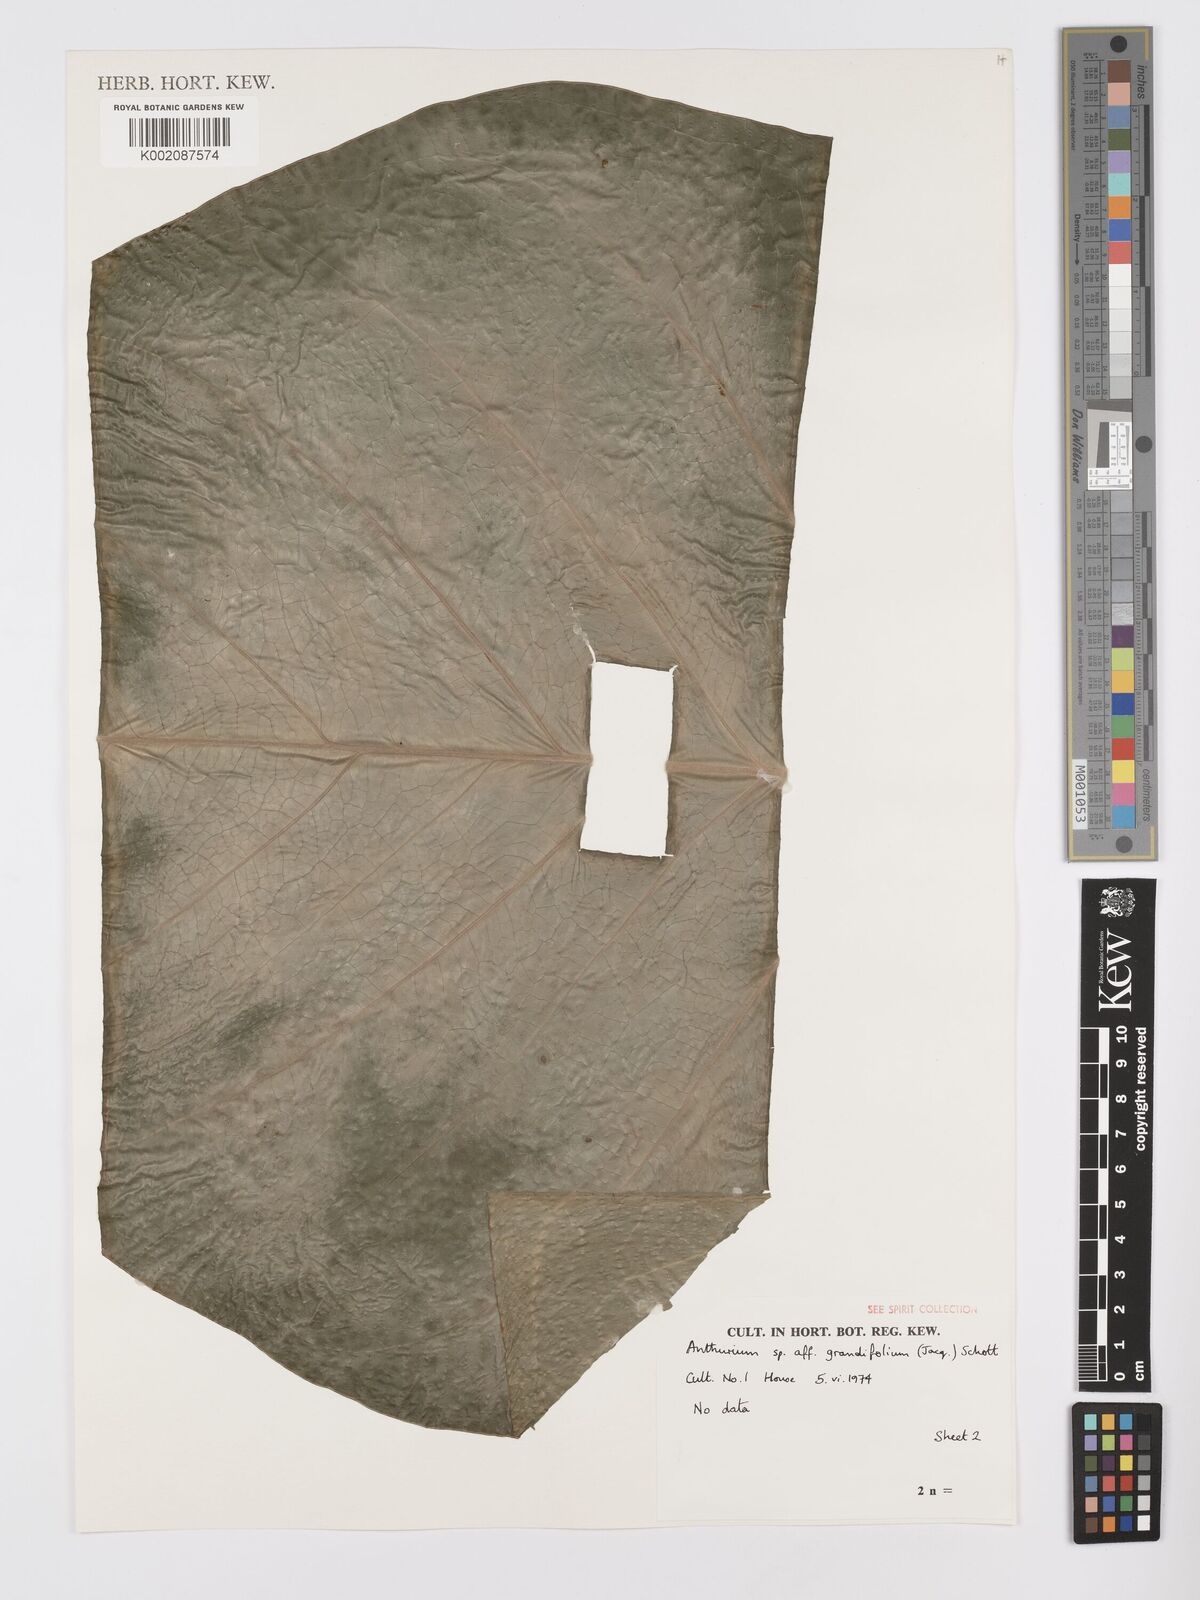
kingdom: Plantae
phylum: Tracheophyta
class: Liliopsida
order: Alismatales
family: Araceae
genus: Anthurium
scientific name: Anthurium grandifolium
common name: Monkey tail
